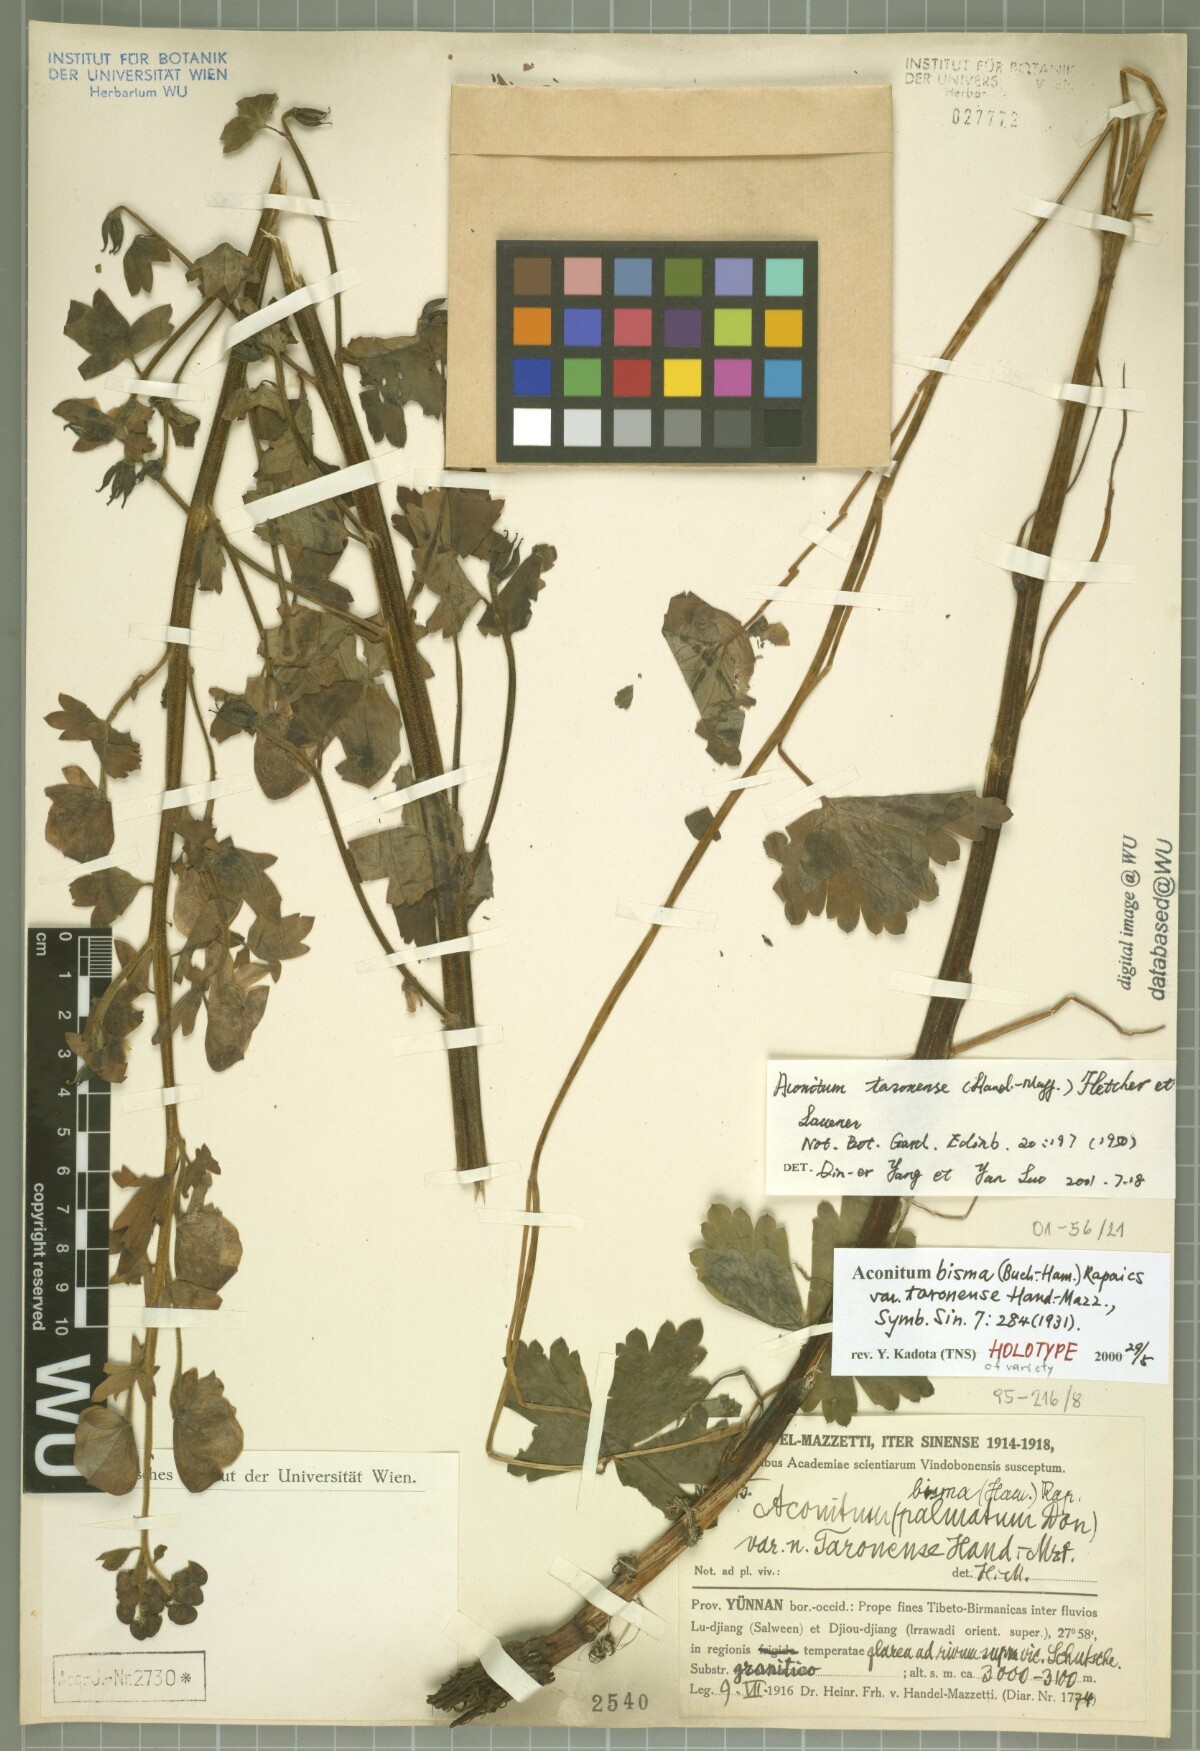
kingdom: Plantae
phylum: Tracheophyta
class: Magnoliopsida
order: Ranunculales
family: Ranunculaceae
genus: Aconitum
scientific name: Aconitum taronense
